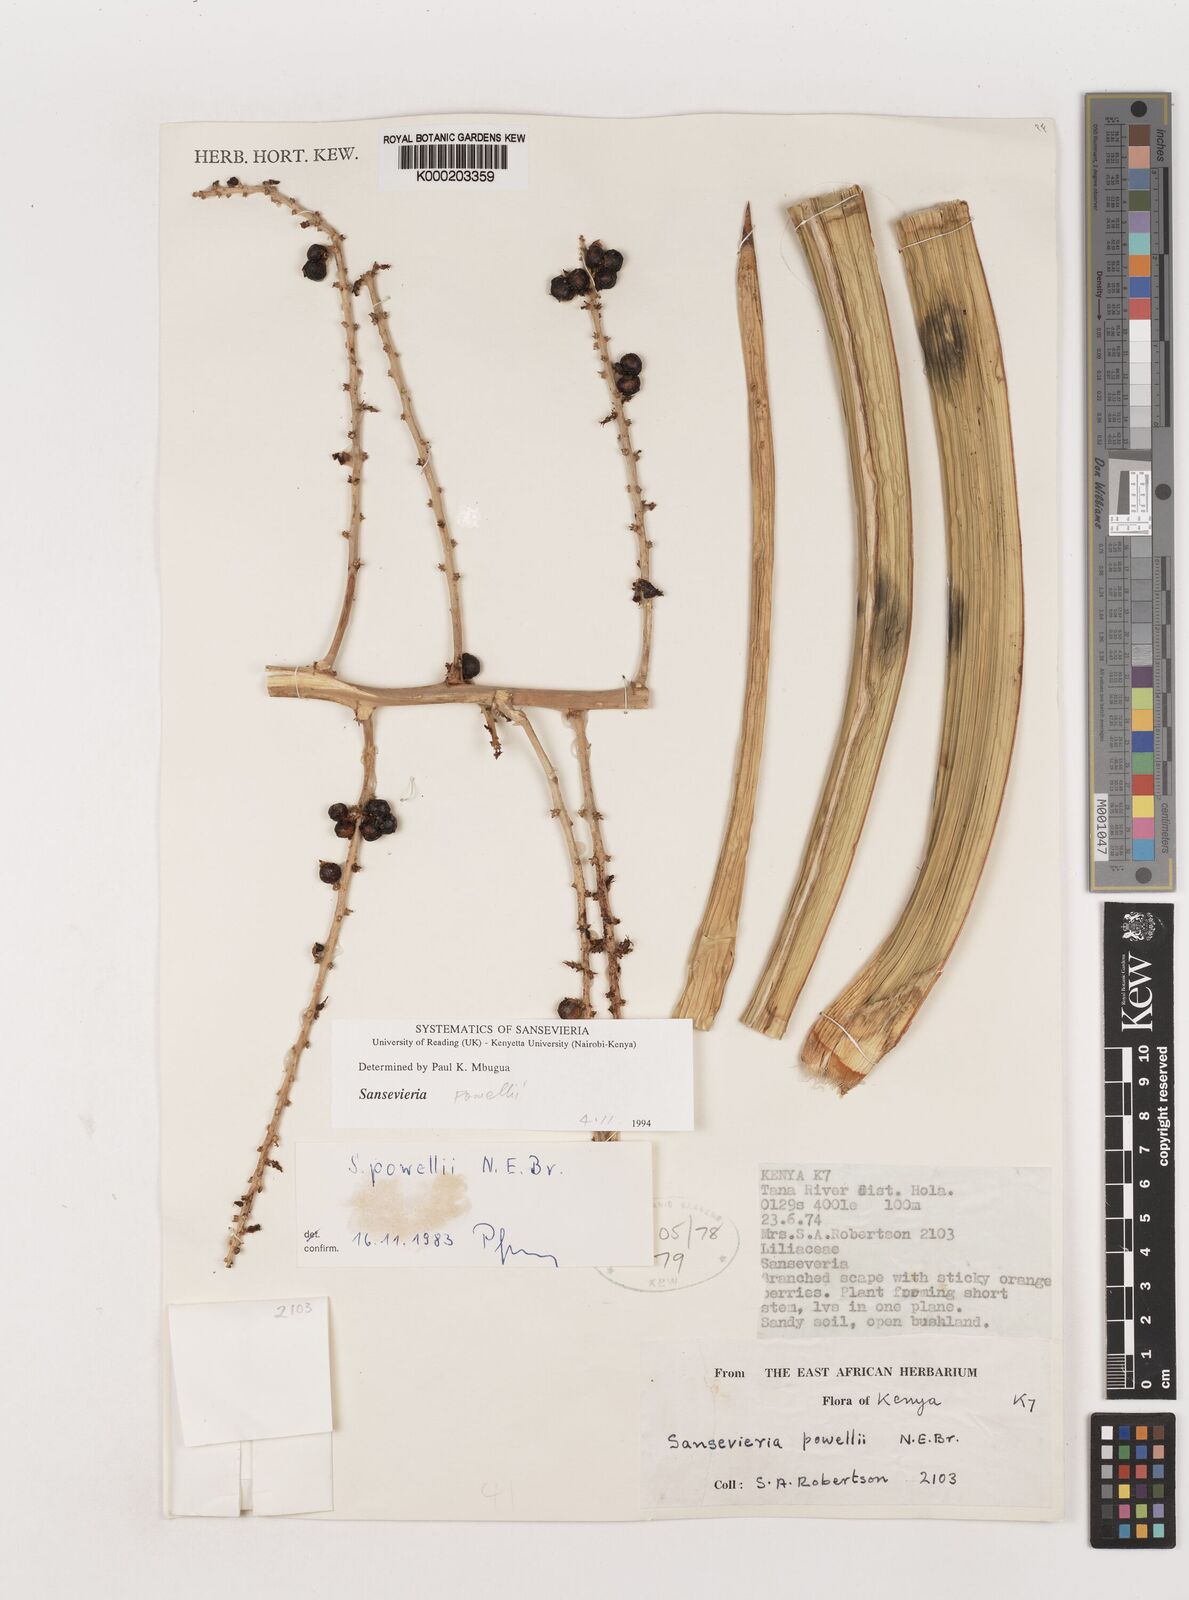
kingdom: Plantae
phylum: Tracheophyta
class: Liliopsida
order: Asparagales
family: Asparagaceae
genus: Dracaena
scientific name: Dracaena powellii
